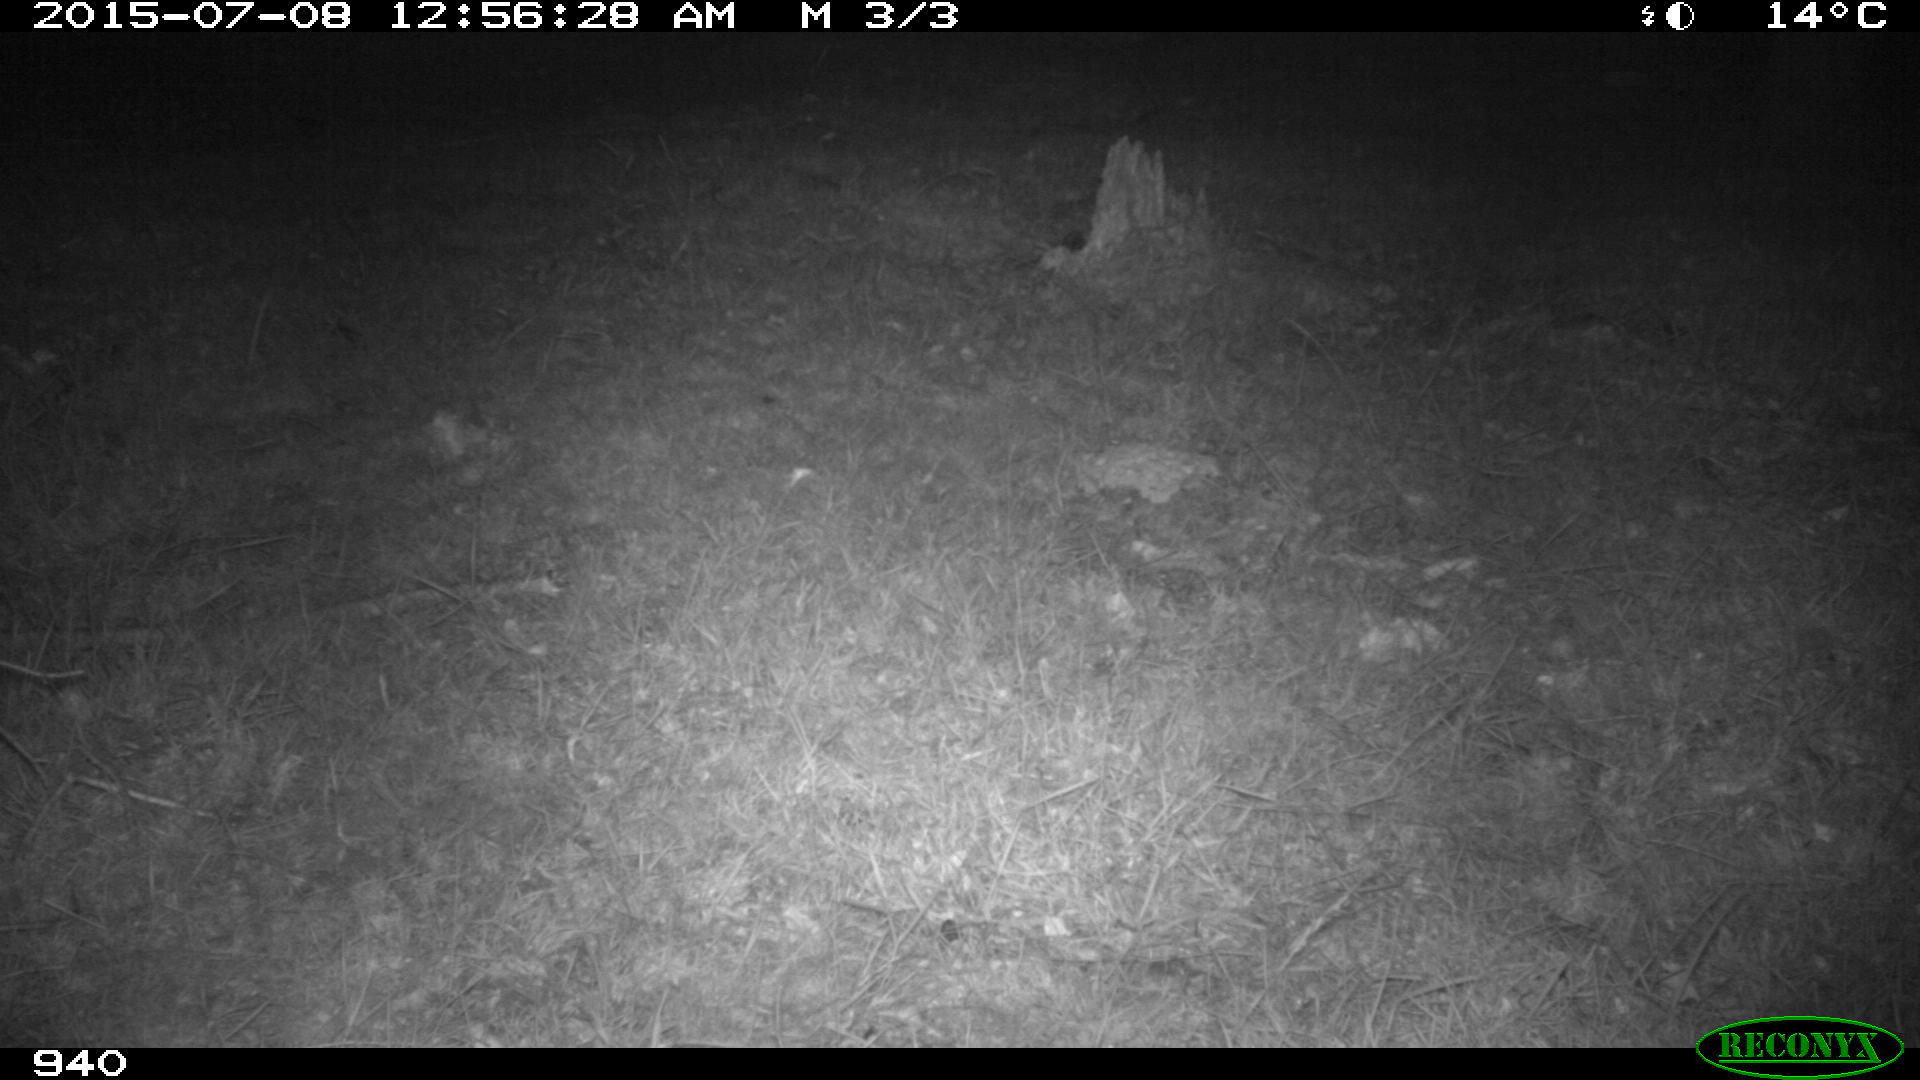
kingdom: Animalia
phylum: Chordata
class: Mammalia
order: Carnivora
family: Canidae
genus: Vulpes
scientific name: Vulpes vulpes
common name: Red fox
